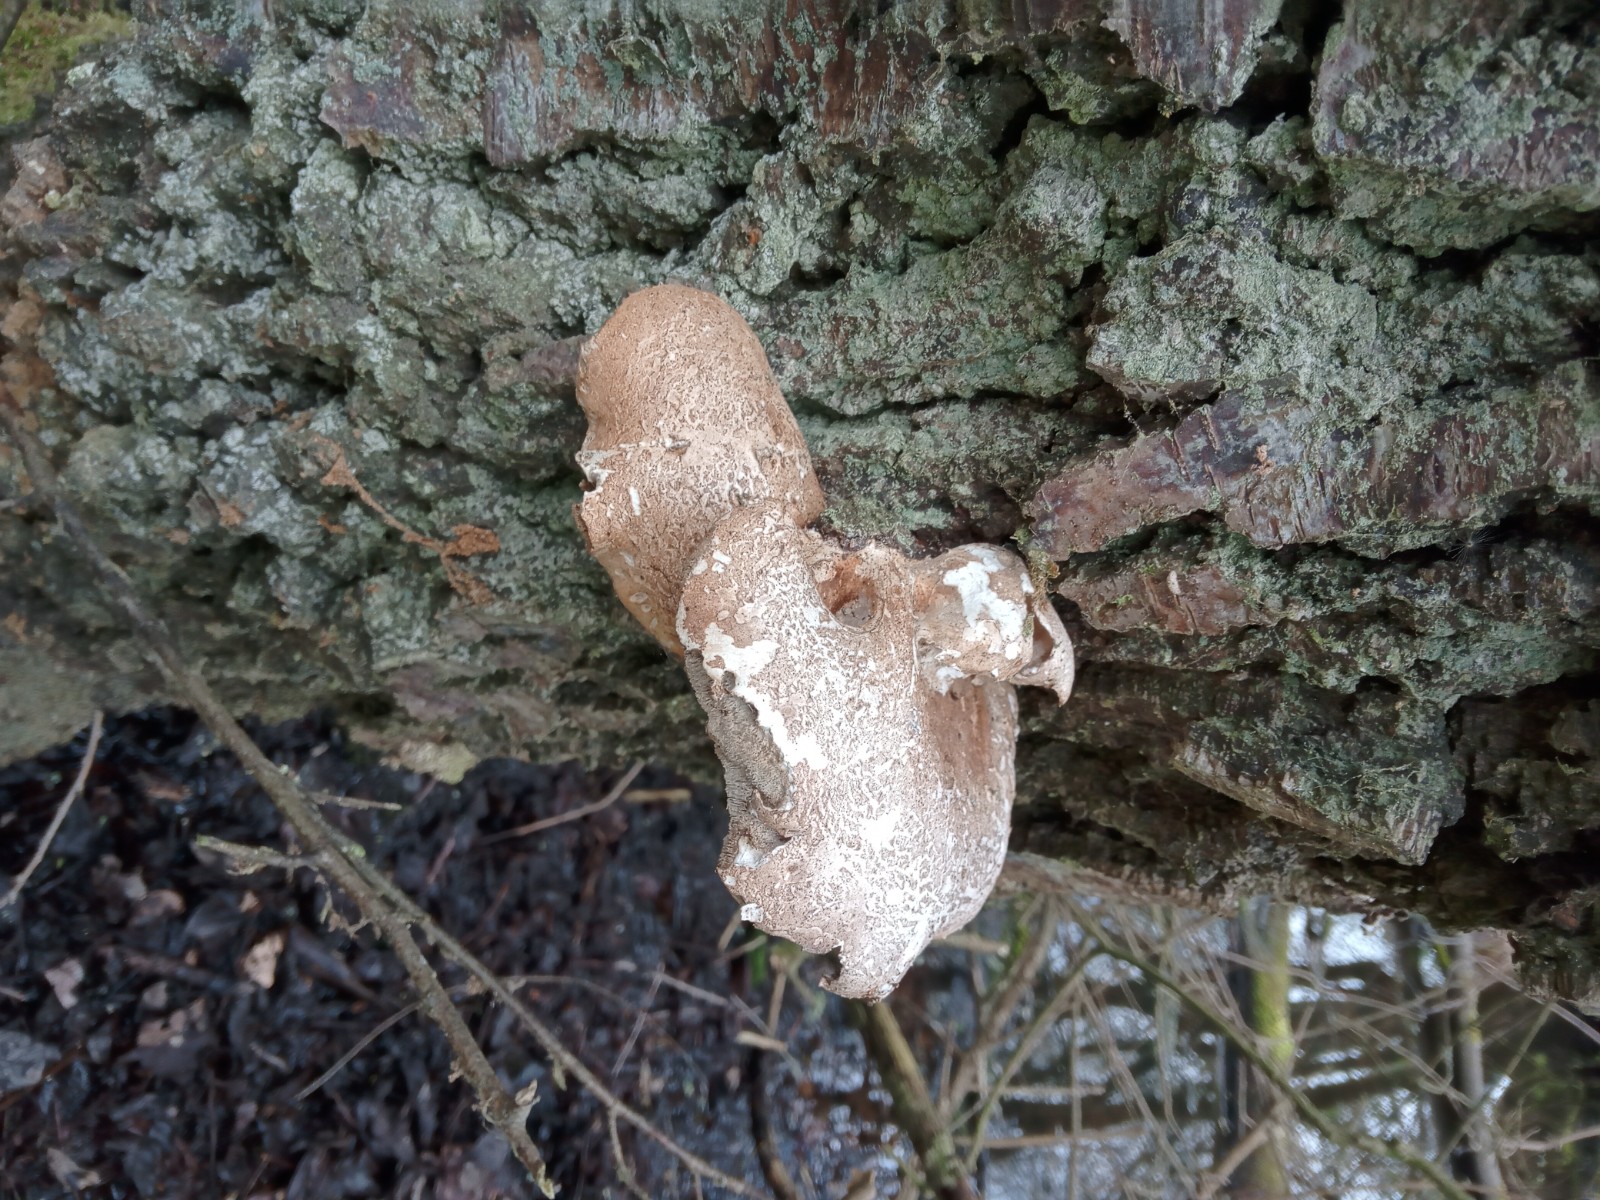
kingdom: Fungi
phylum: Basidiomycota
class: Agaricomycetes
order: Polyporales
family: Fomitopsidaceae
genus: Fomitopsis
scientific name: Fomitopsis betulina
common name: birkeporesvamp
